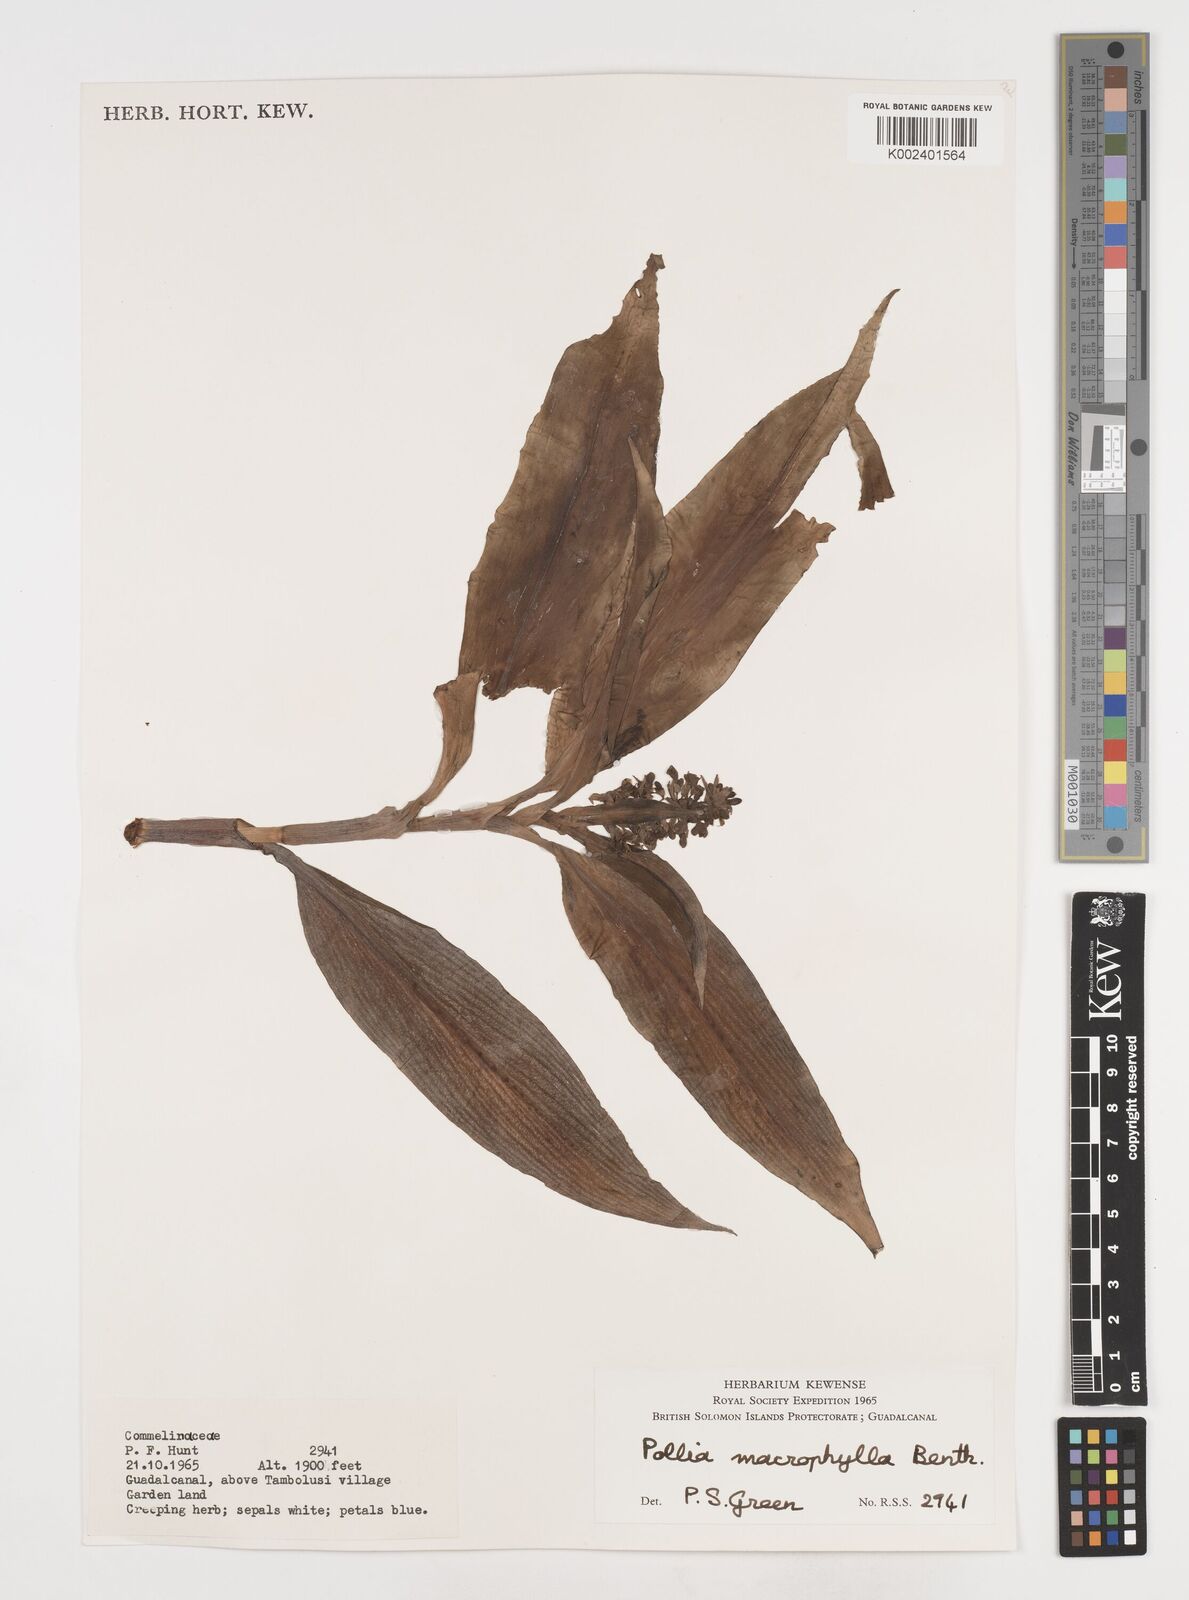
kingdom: Plantae
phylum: Tracheophyta
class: Liliopsida
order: Commelinales
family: Commelinaceae
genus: Pollia
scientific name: Pollia macrophylla
